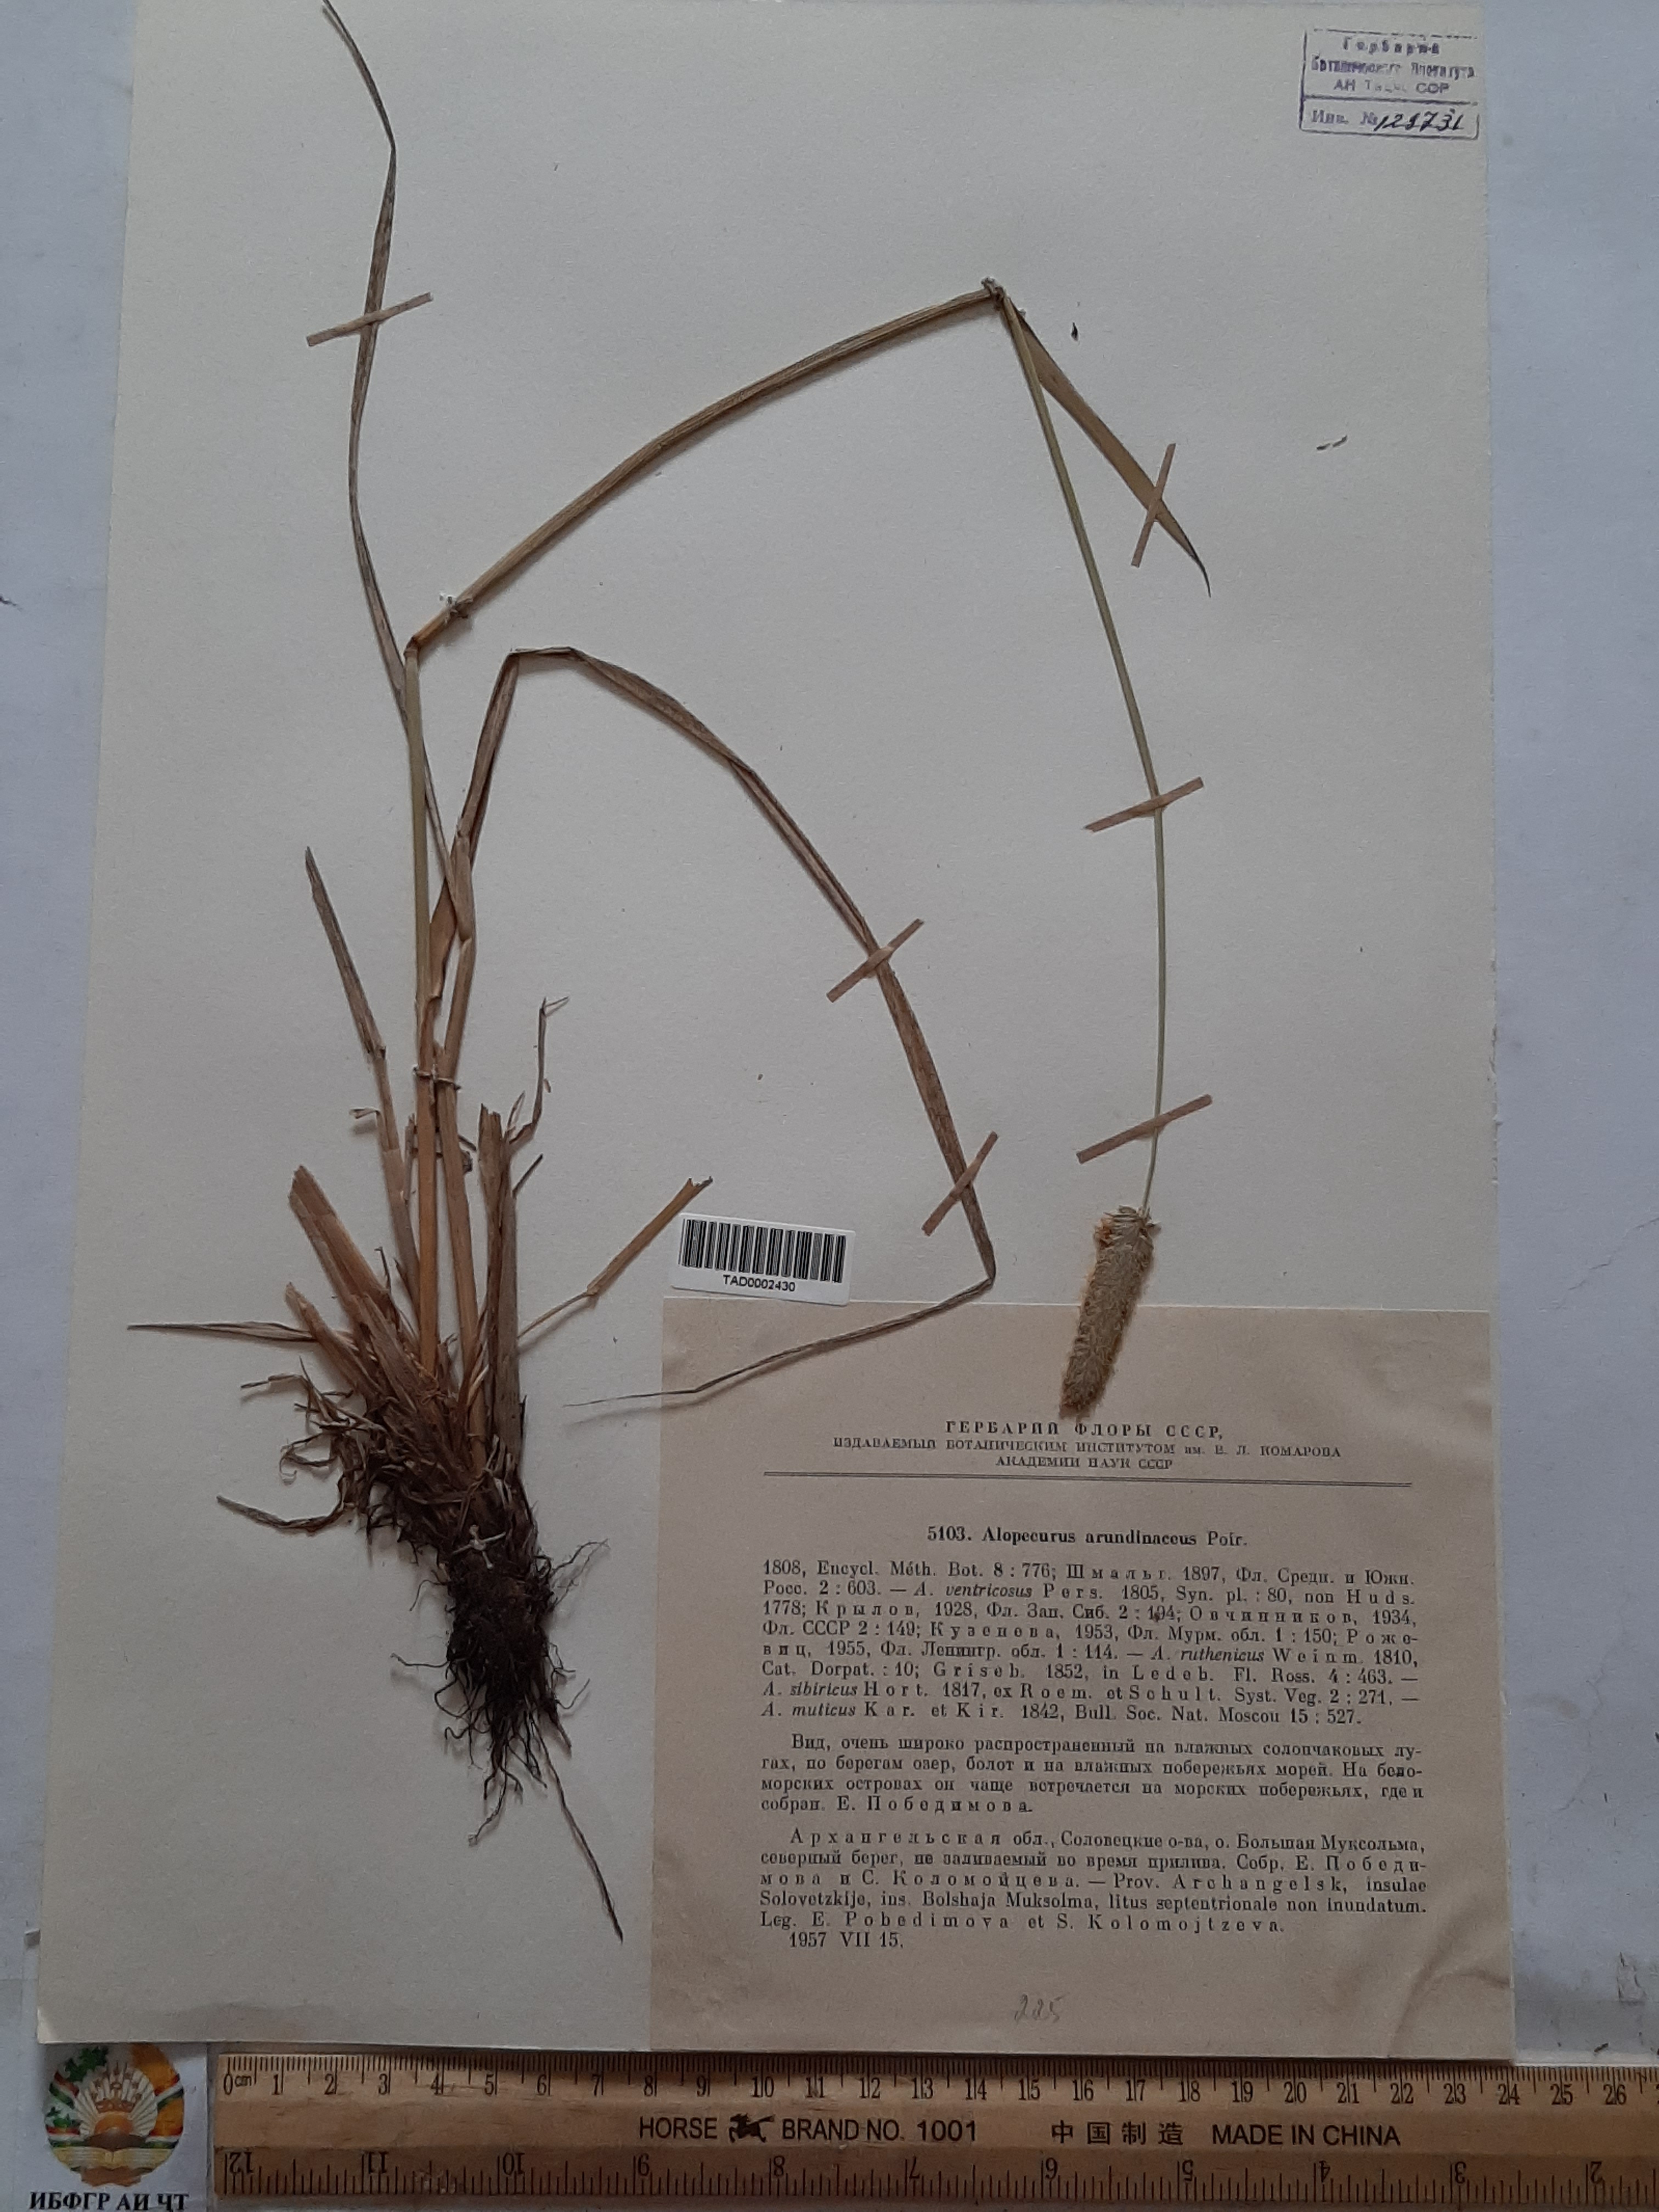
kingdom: Plantae
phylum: Tracheophyta
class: Liliopsida
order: Poales
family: Poaceae
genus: Alopecurus
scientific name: Alopecurus arundinaceus
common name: Creeping meadow foxtail
